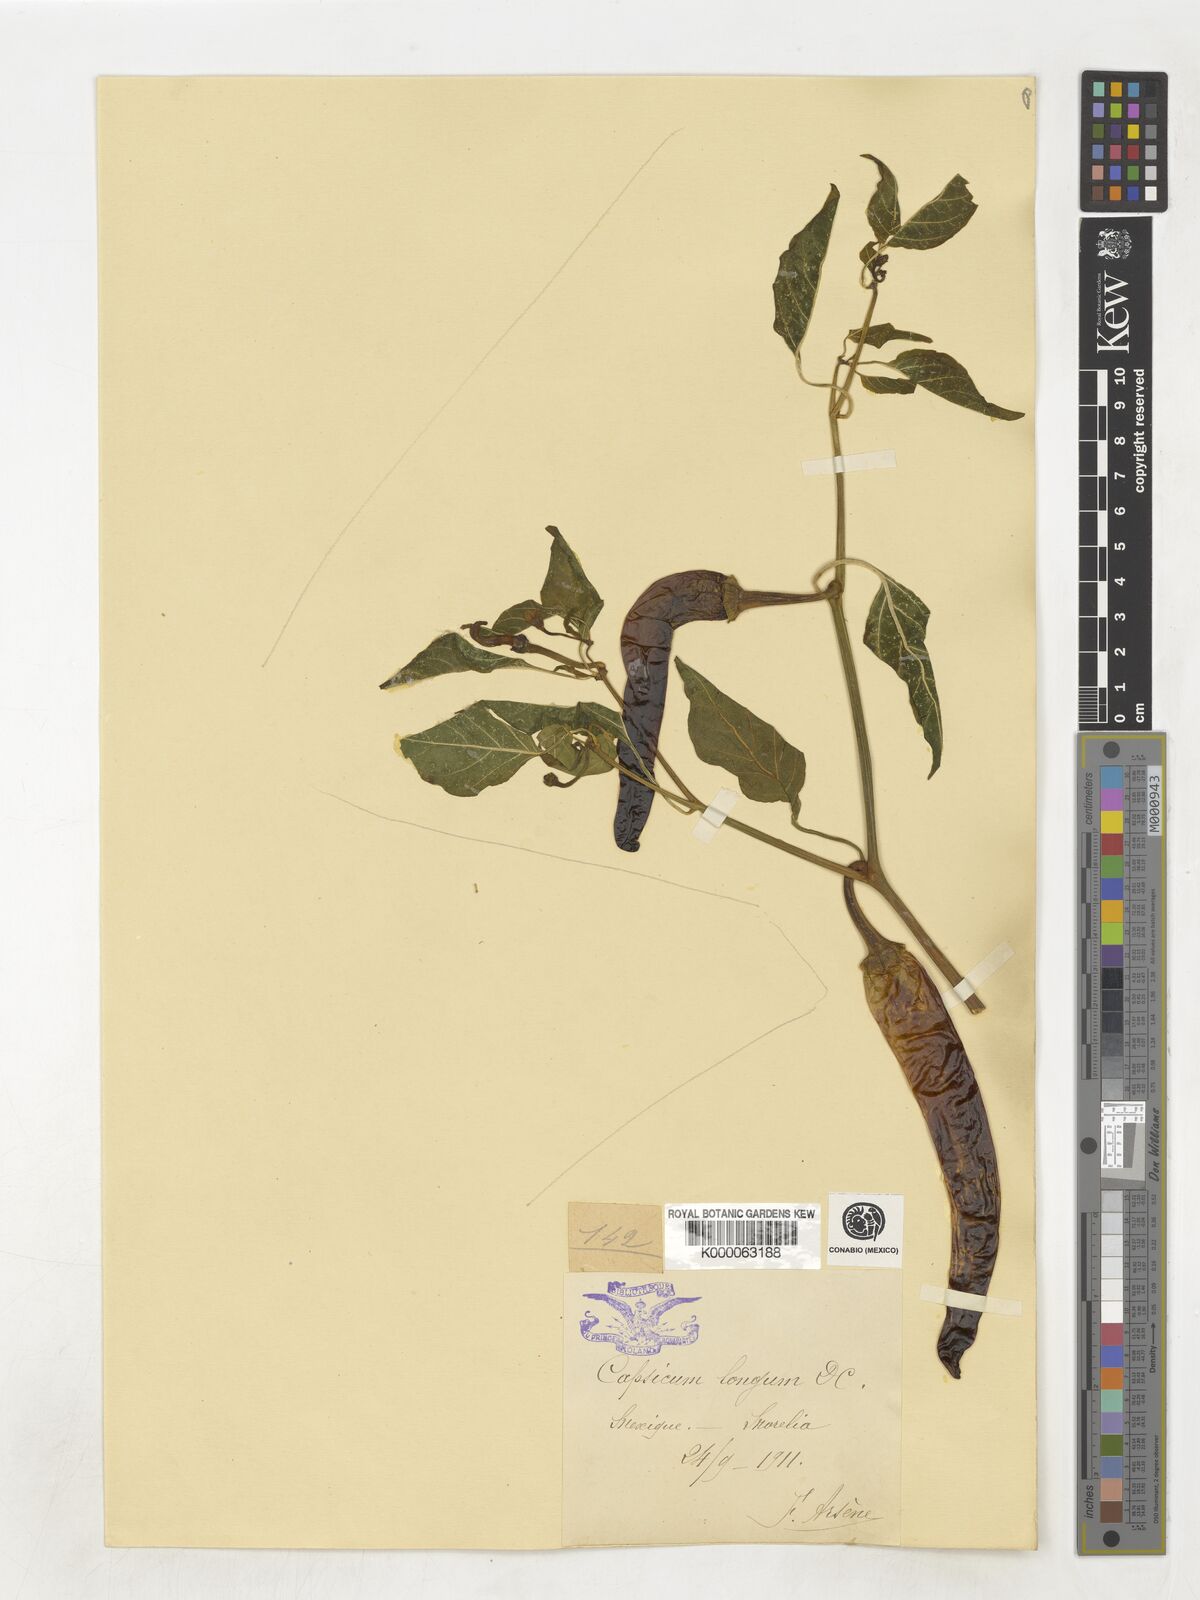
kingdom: Plantae
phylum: Tracheophyta
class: Magnoliopsida
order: Solanales
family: Solanaceae
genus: Capsicum
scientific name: Capsicum annuum
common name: Sweet pepper
